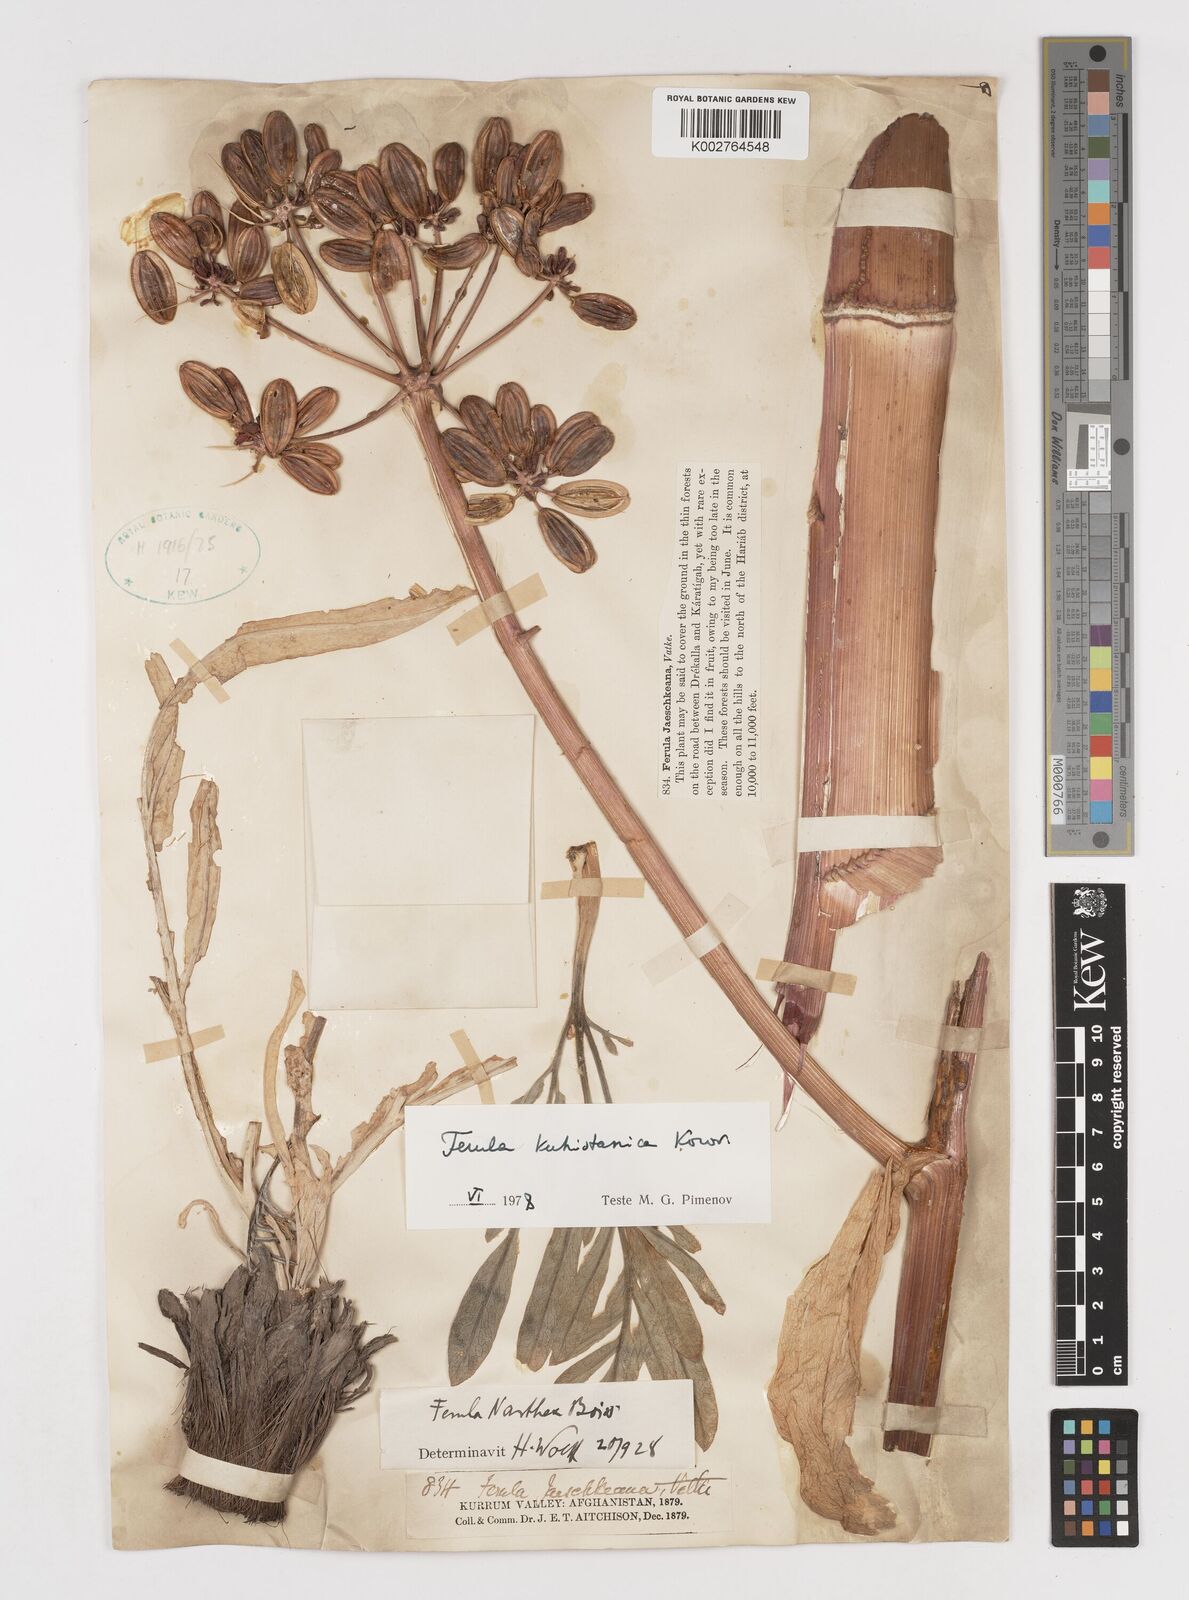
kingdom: Plantae
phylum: Tracheophyta
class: Magnoliopsida
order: Apiales
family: Apiaceae
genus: Ferula
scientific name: Ferula kuhistanica
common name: Kamol
